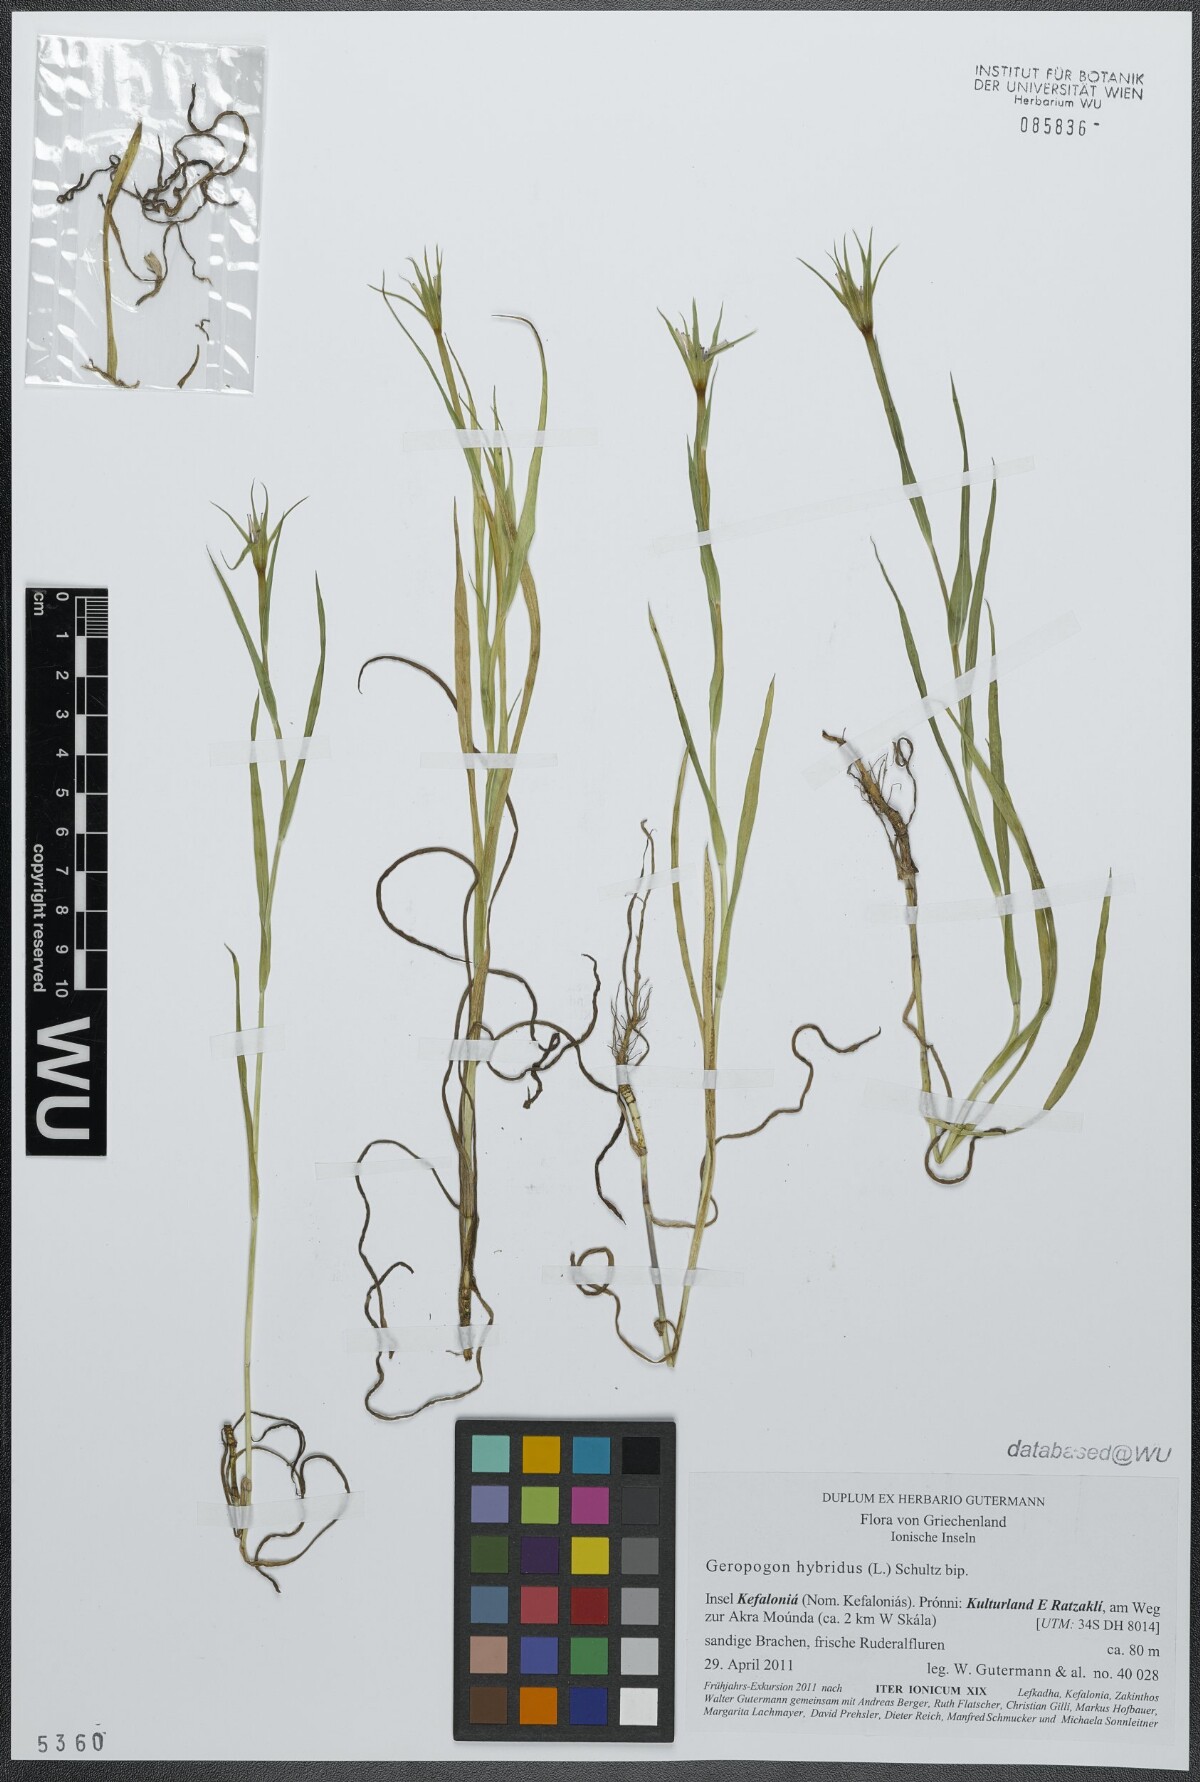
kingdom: Plantae
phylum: Tracheophyta
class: Magnoliopsida
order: Asterales
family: Asteraceae
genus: Geropogon
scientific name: Geropogon hybridus
